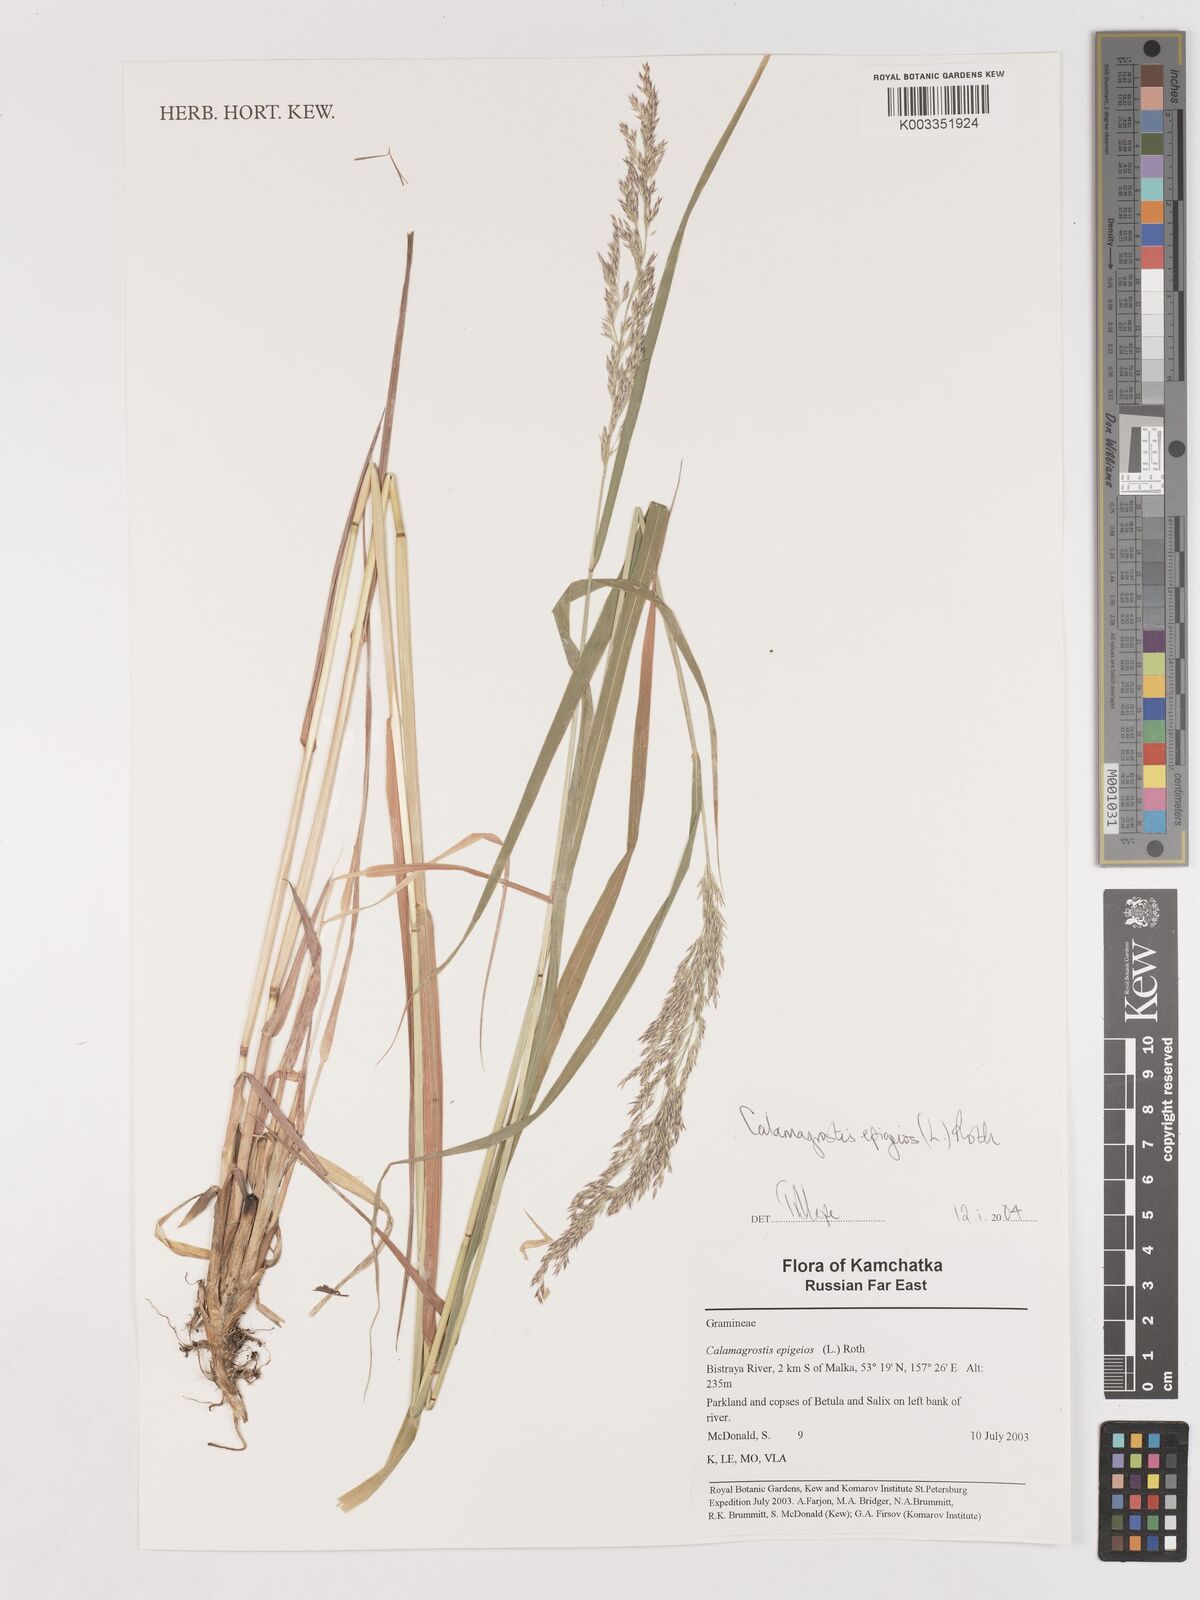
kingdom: Plantae
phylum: Tracheophyta
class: Liliopsida
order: Poales
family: Poaceae
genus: Calamagrostis
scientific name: Calamagrostis epigejos
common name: Wood small-reed
